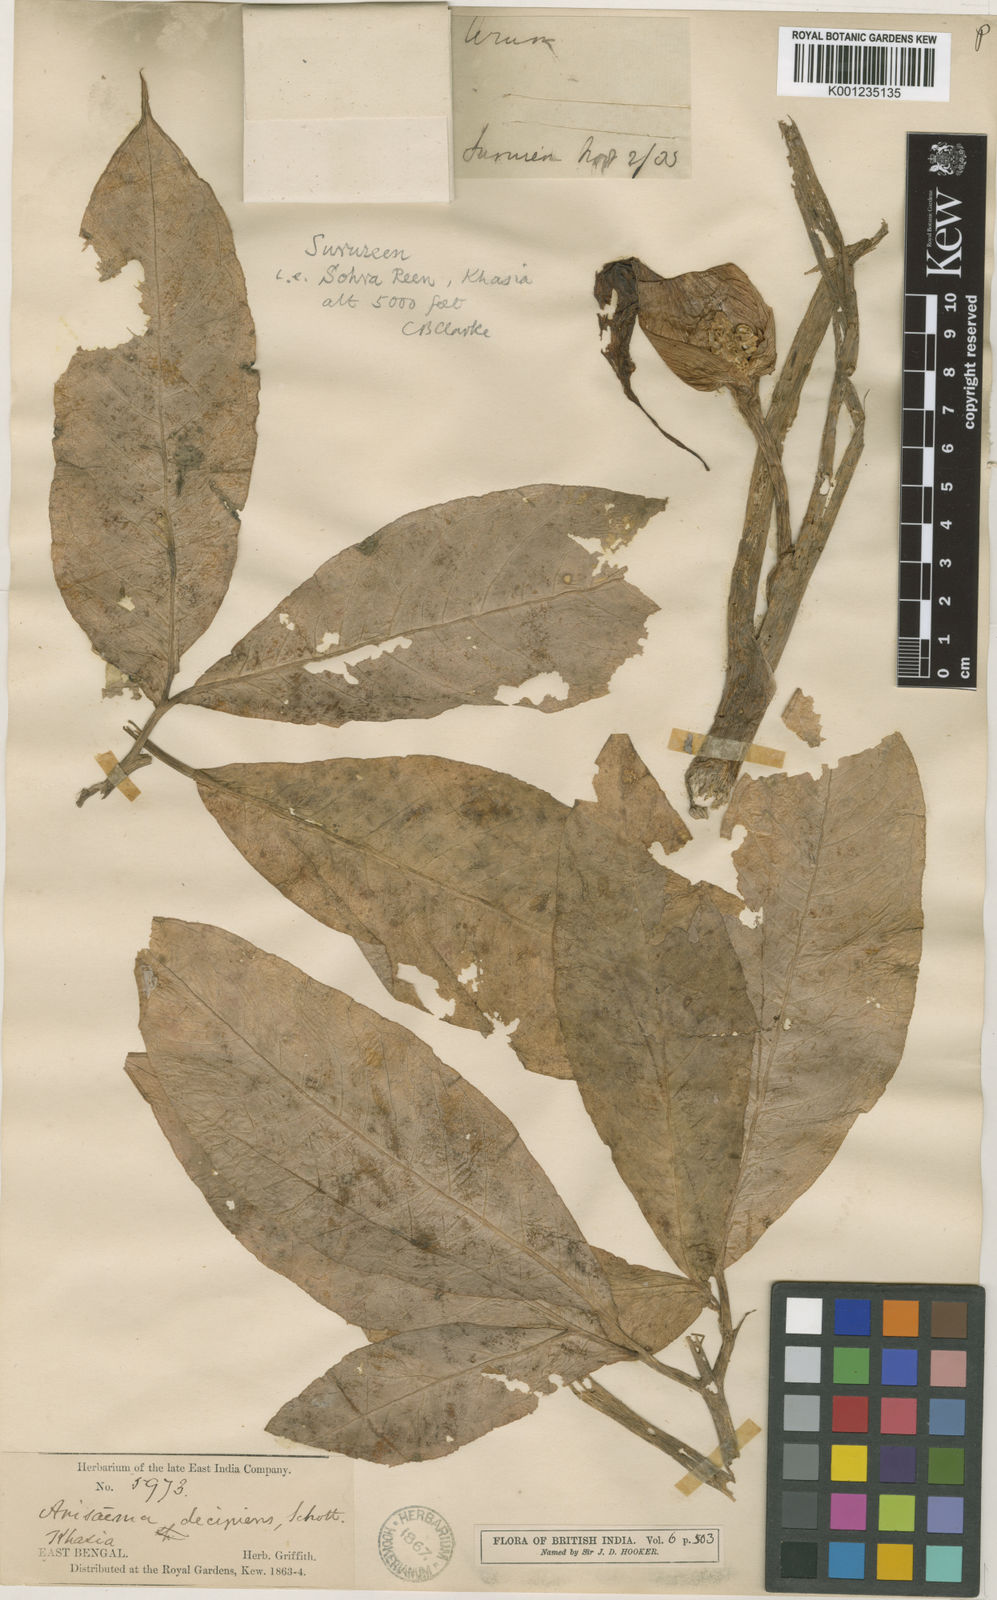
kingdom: Plantae
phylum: Tracheophyta
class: Liliopsida
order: Alismatales
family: Araceae
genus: Arisaema
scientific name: Arisaema decipiens
